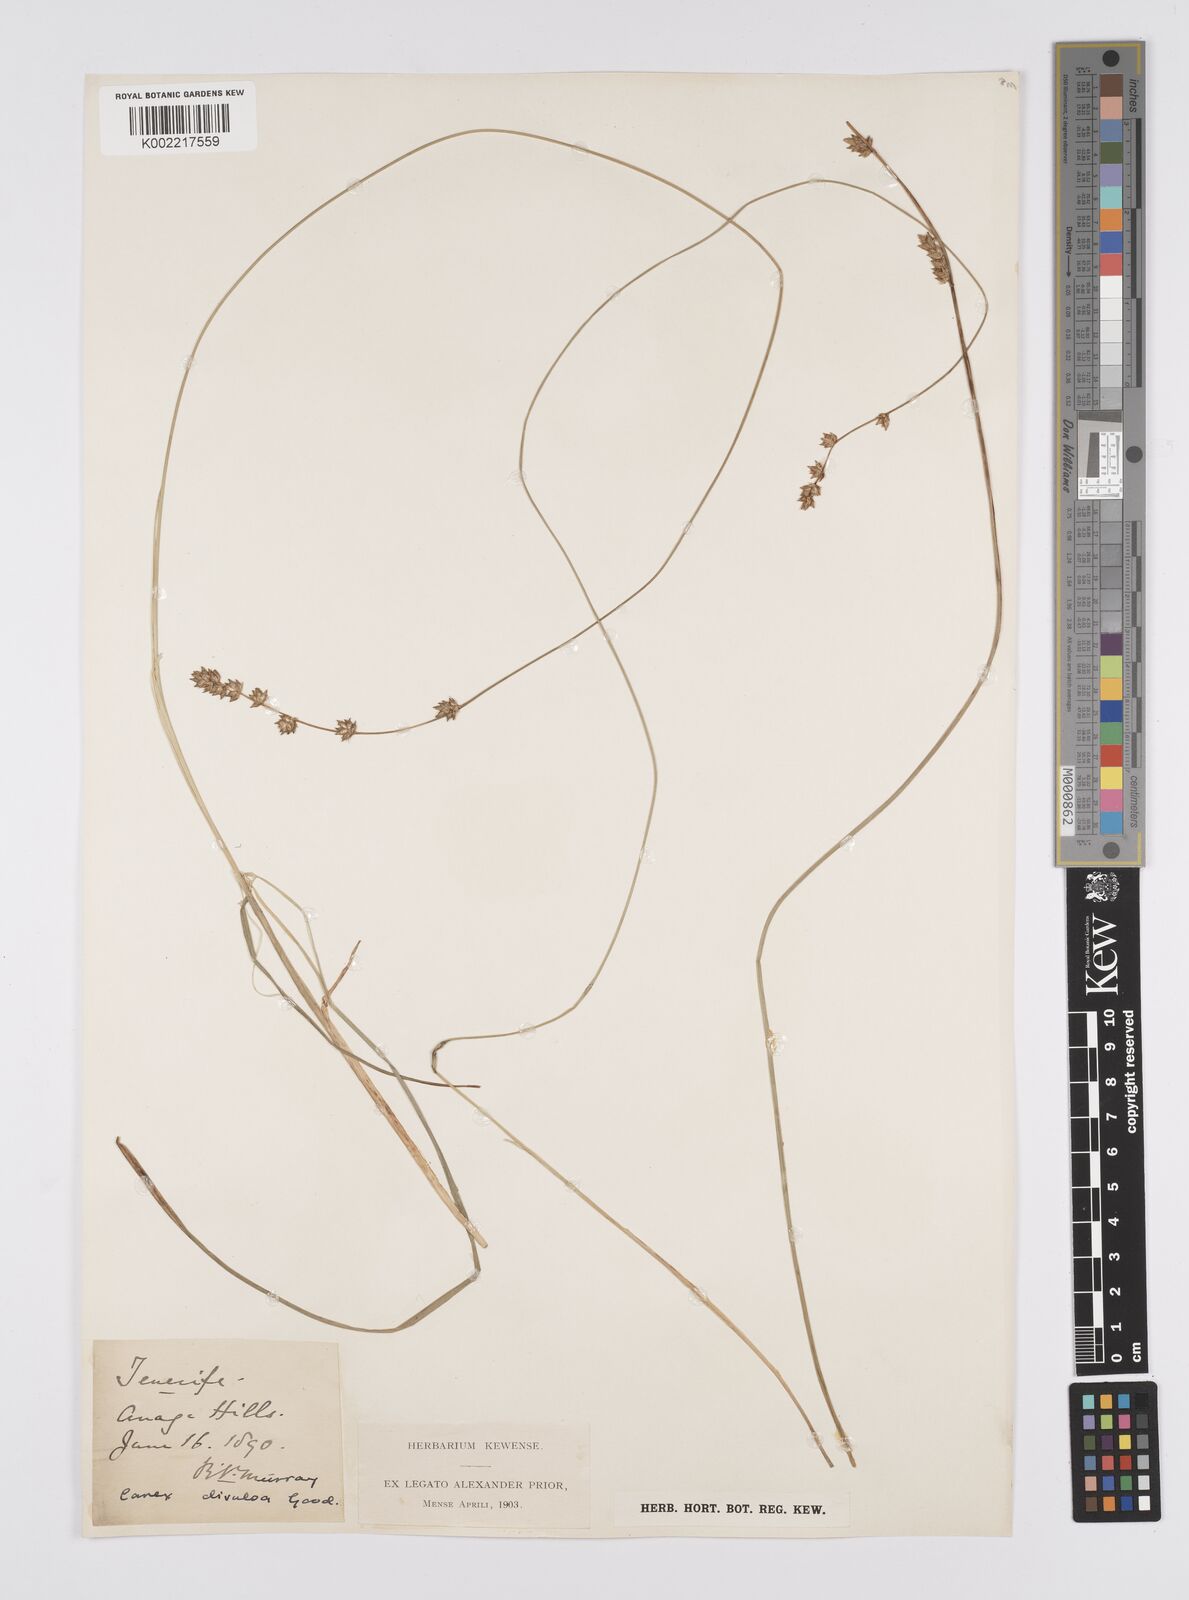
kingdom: Plantae
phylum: Tracheophyta
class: Liliopsida
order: Poales
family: Cyperaceae
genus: Carex
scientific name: Carex divulsa
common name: Grassland sedge
